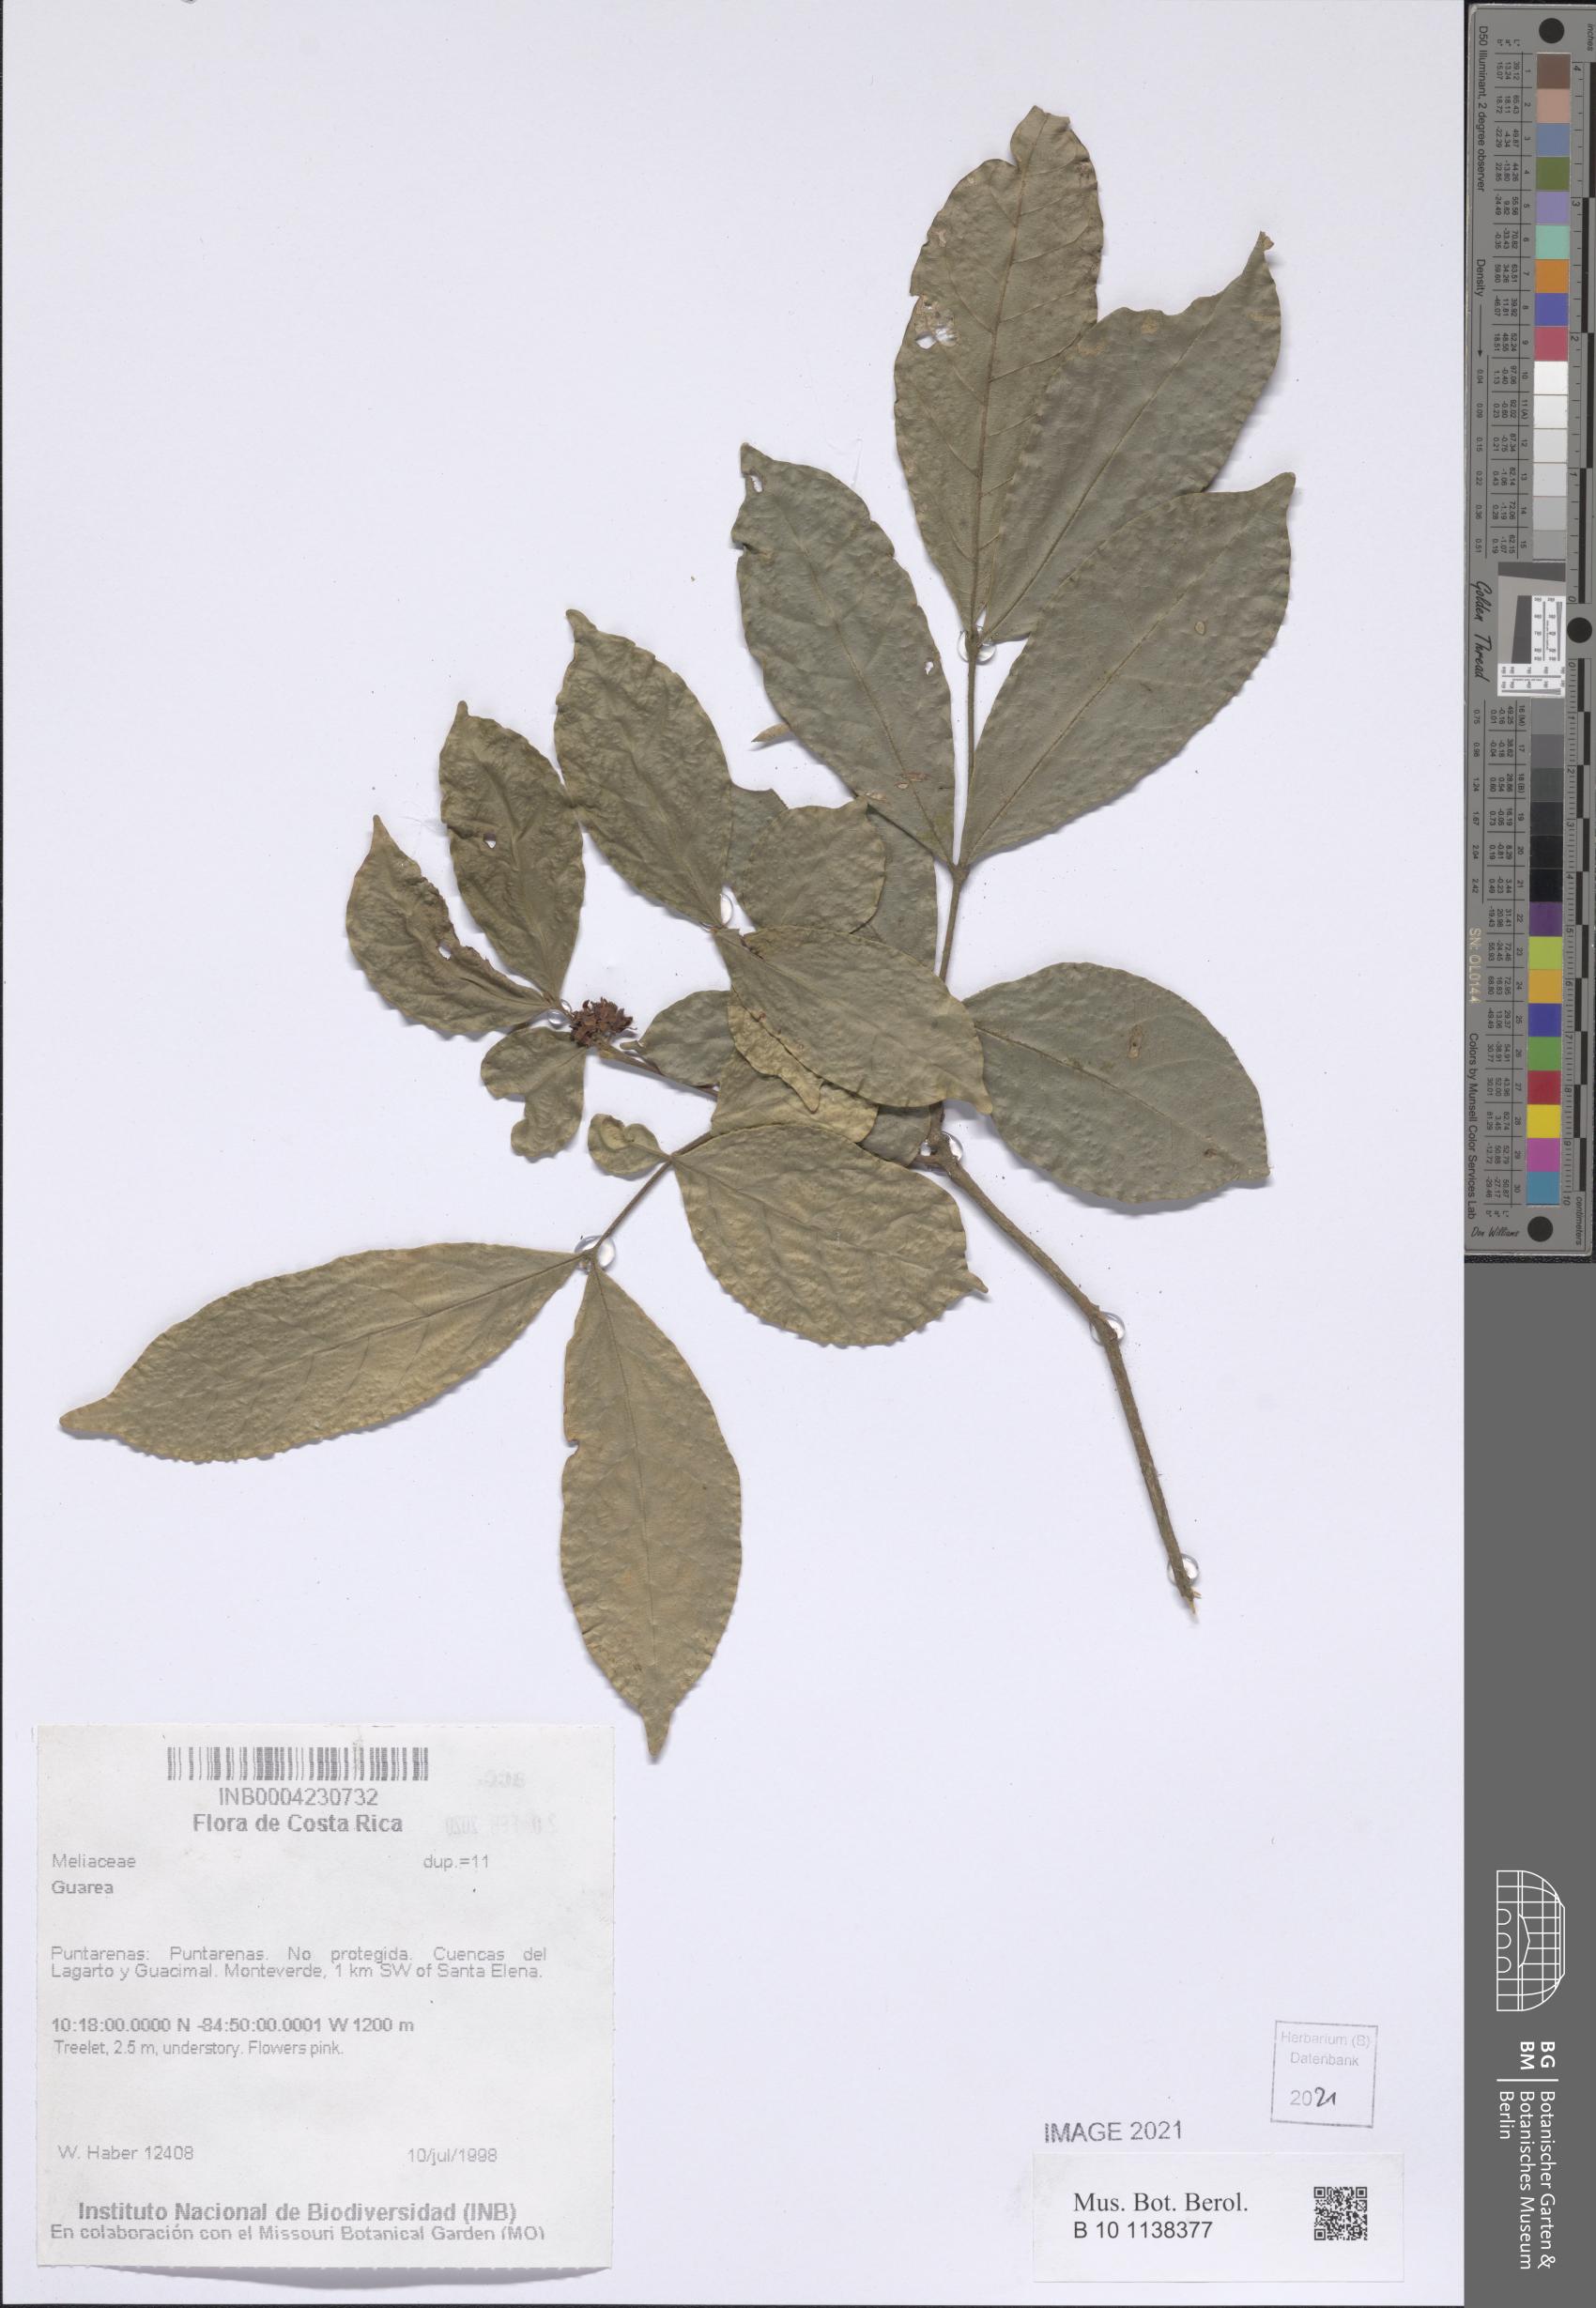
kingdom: Plantae
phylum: Tracheophyta
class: Magnoliopsida
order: Sapindales
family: Meliaceae
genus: Guarea
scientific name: Guarea
